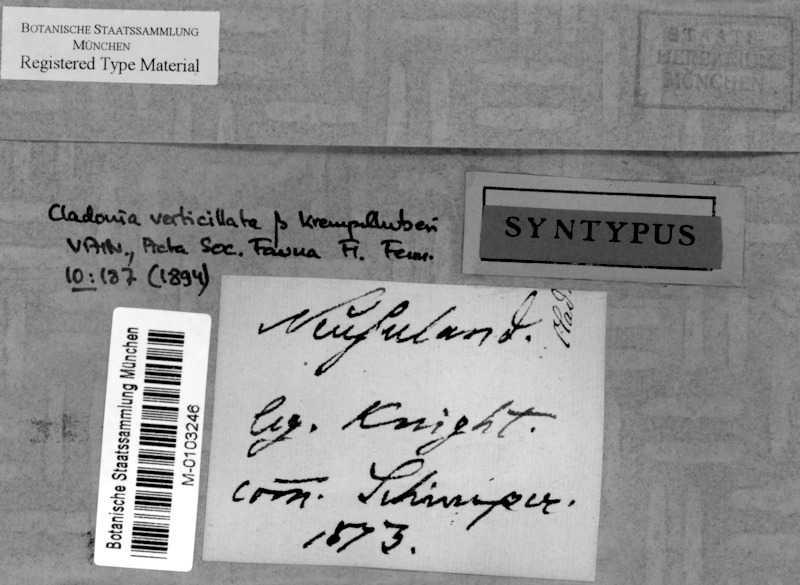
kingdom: Fungi
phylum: Ascomycota
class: Lecanoromycetes
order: Lecanorales
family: Cladoniaceae
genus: Cladonia
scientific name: Cladonia krempelhuberi
